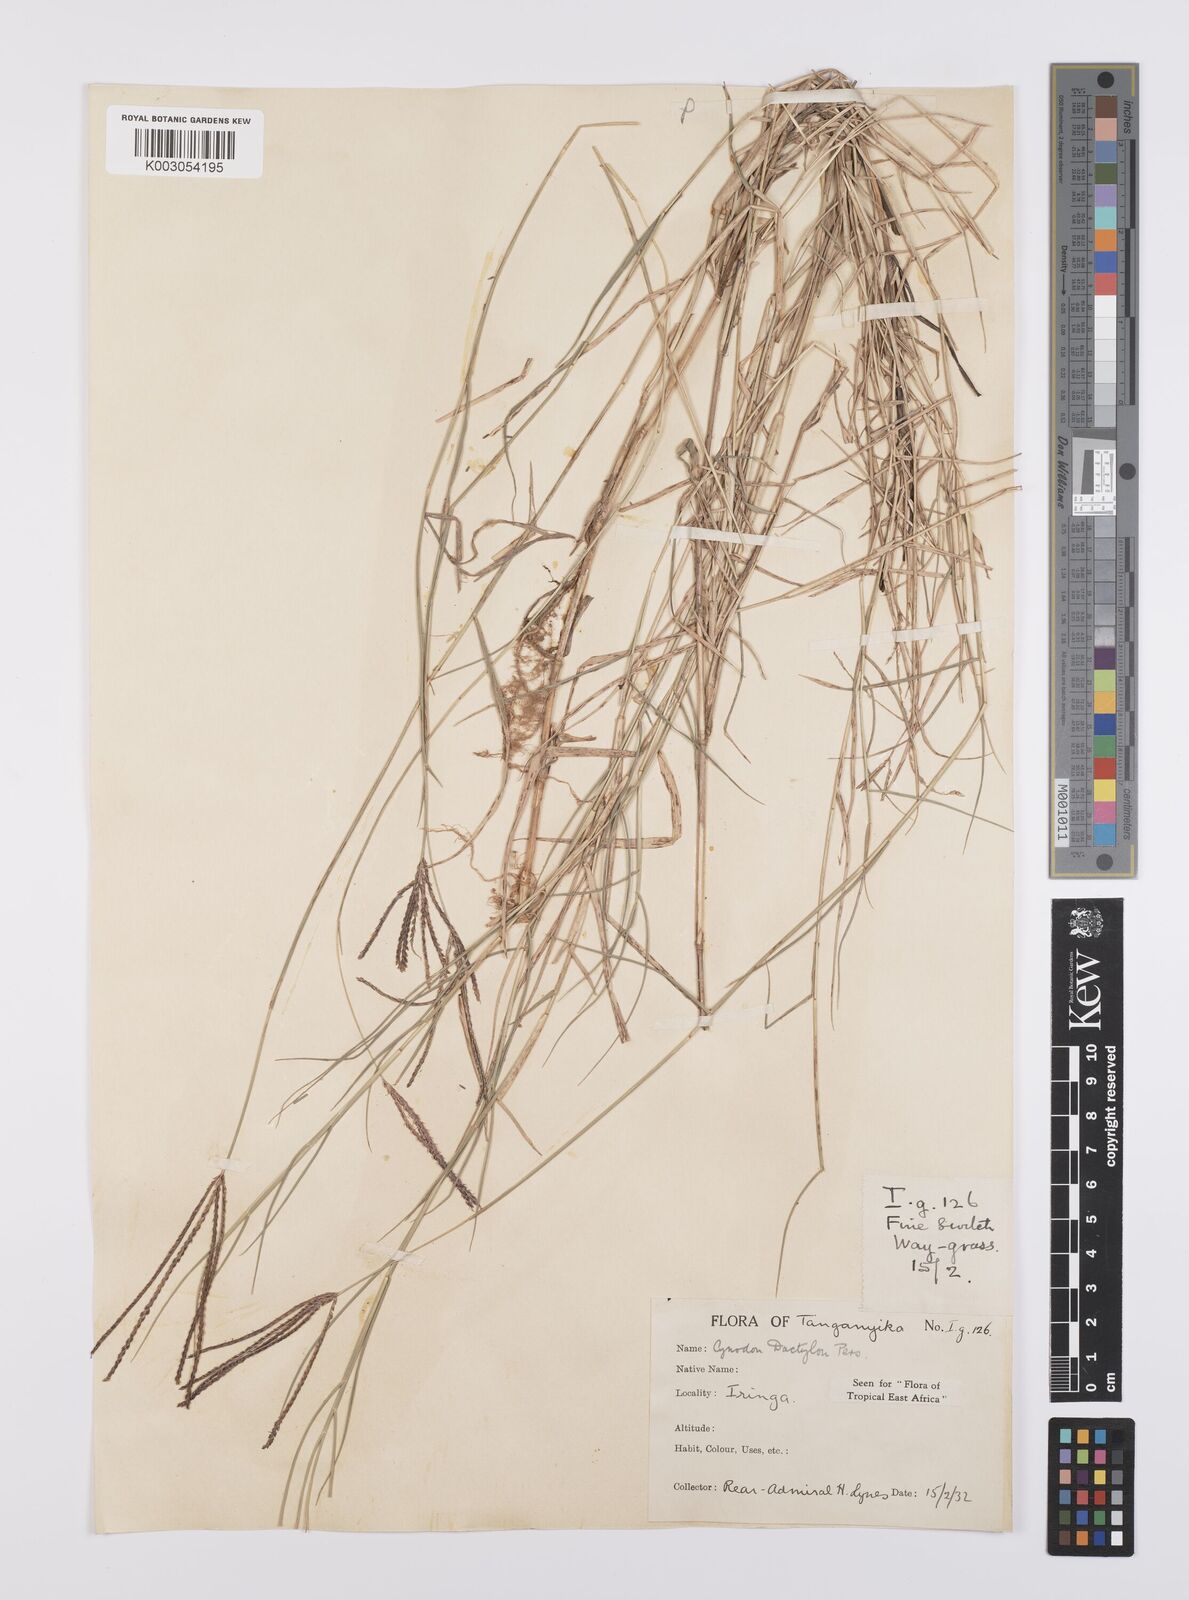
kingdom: Plantae
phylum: Tracheophyta
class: Liliopsida
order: Poales
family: Poaceae
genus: Cynodon
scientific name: Cynodon dactylon
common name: Bermuda grass
